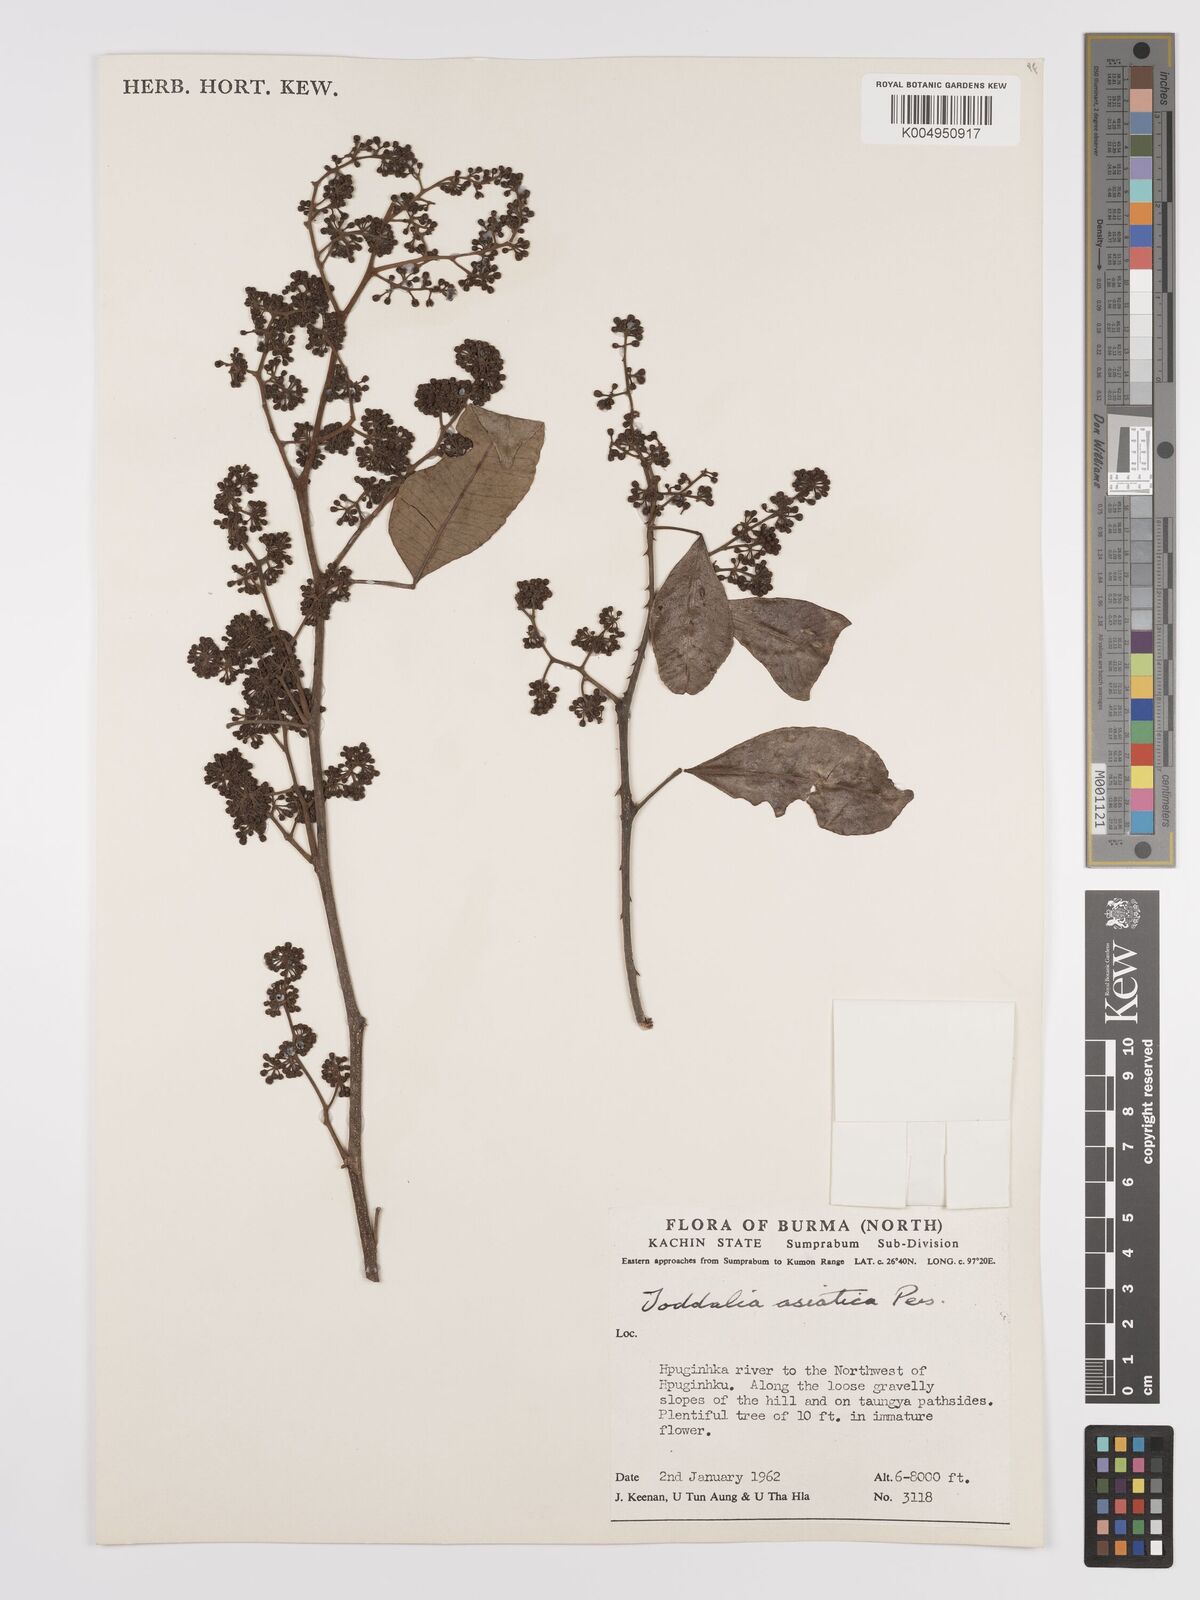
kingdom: Plantae
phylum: Tracheophyta
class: Magnoliopsida
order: Sapindales
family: Rutaceae
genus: Zanthoxylum
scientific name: Zanthoxylum asiaticum
